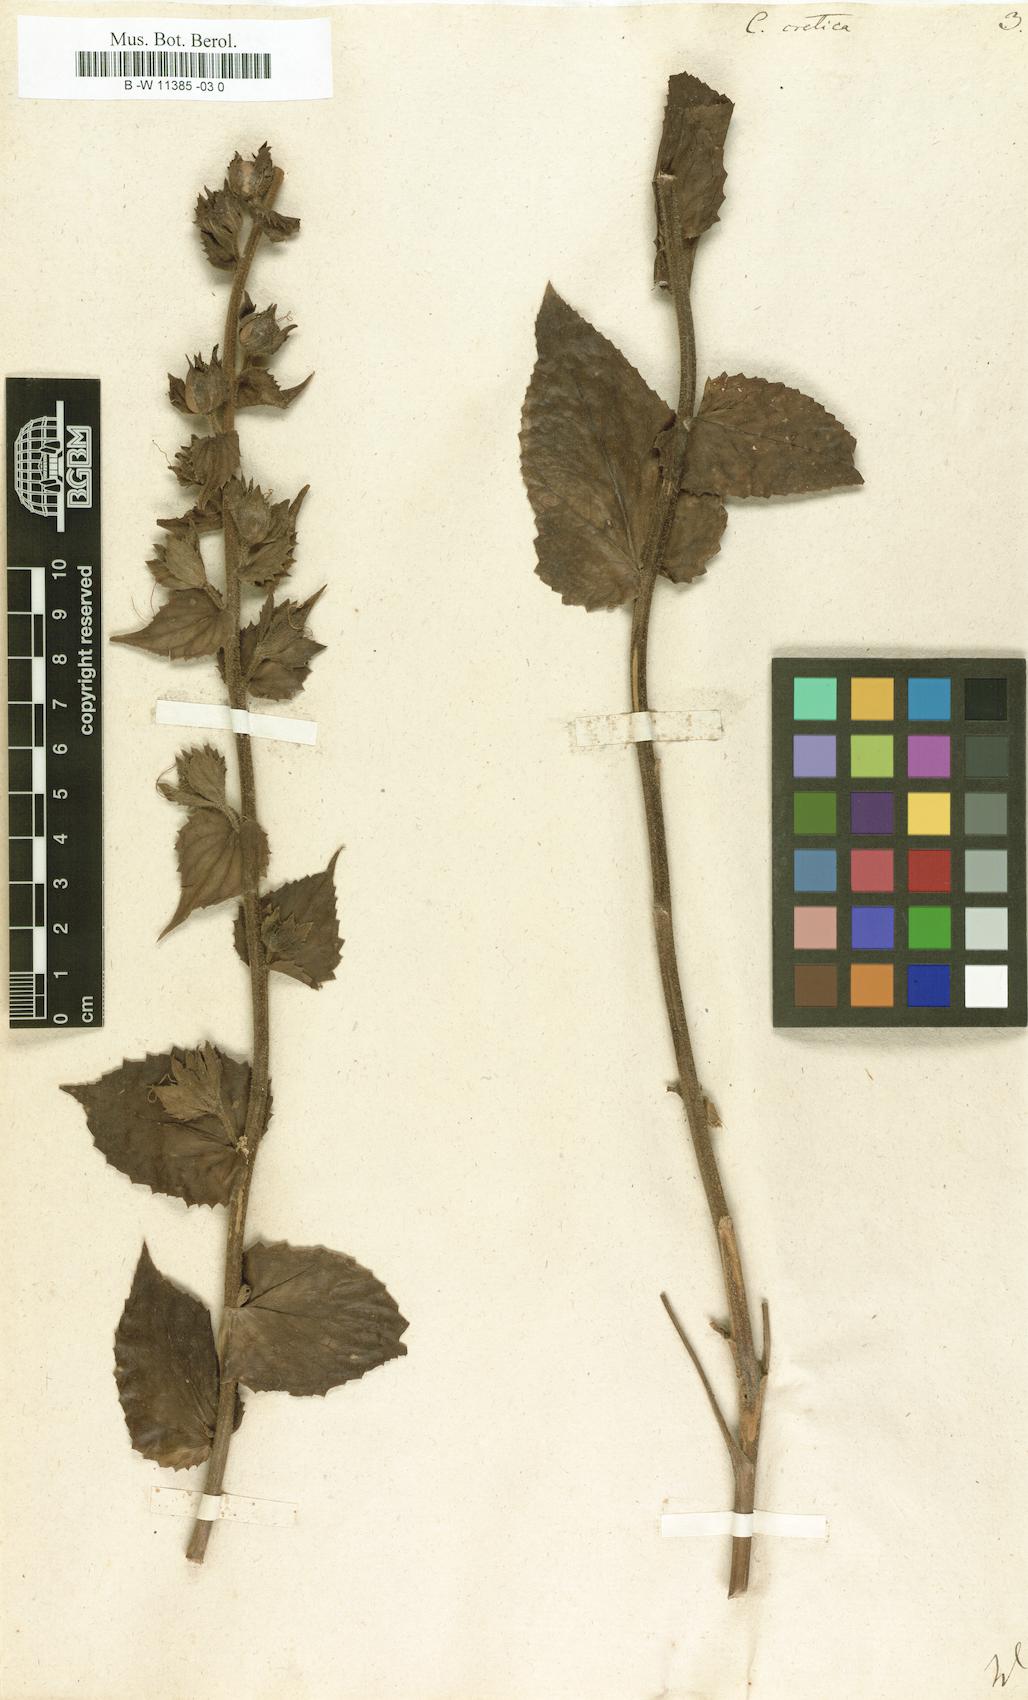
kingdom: Plantae
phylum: Tracheophyta
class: Magnoliopsida
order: Lamiales
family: Scrophulariaceae
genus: Verbascum
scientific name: Verbascum creticum
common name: Cretan mullein
